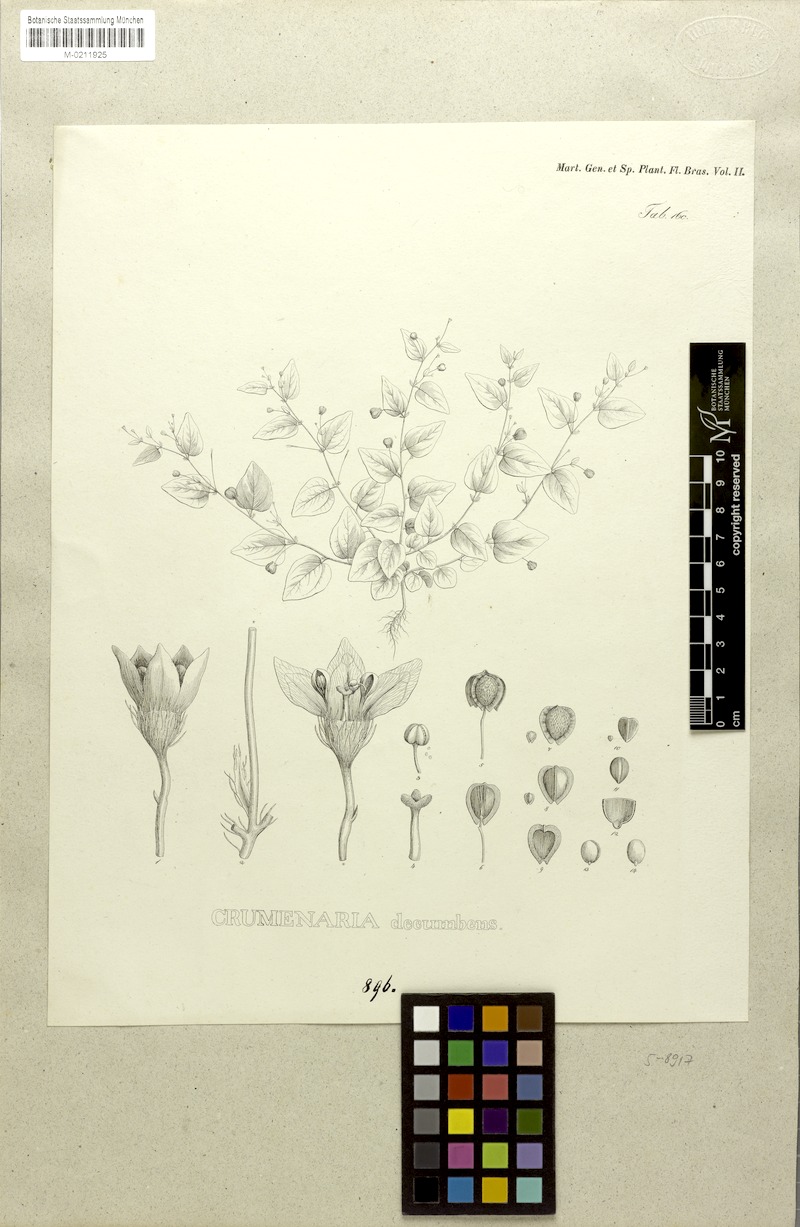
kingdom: Plantae
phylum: Tracheophyta
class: Magnoliopsida
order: Rosales
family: Rhamnaceae
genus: Crumenaria
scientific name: Crumenaria decumbens
